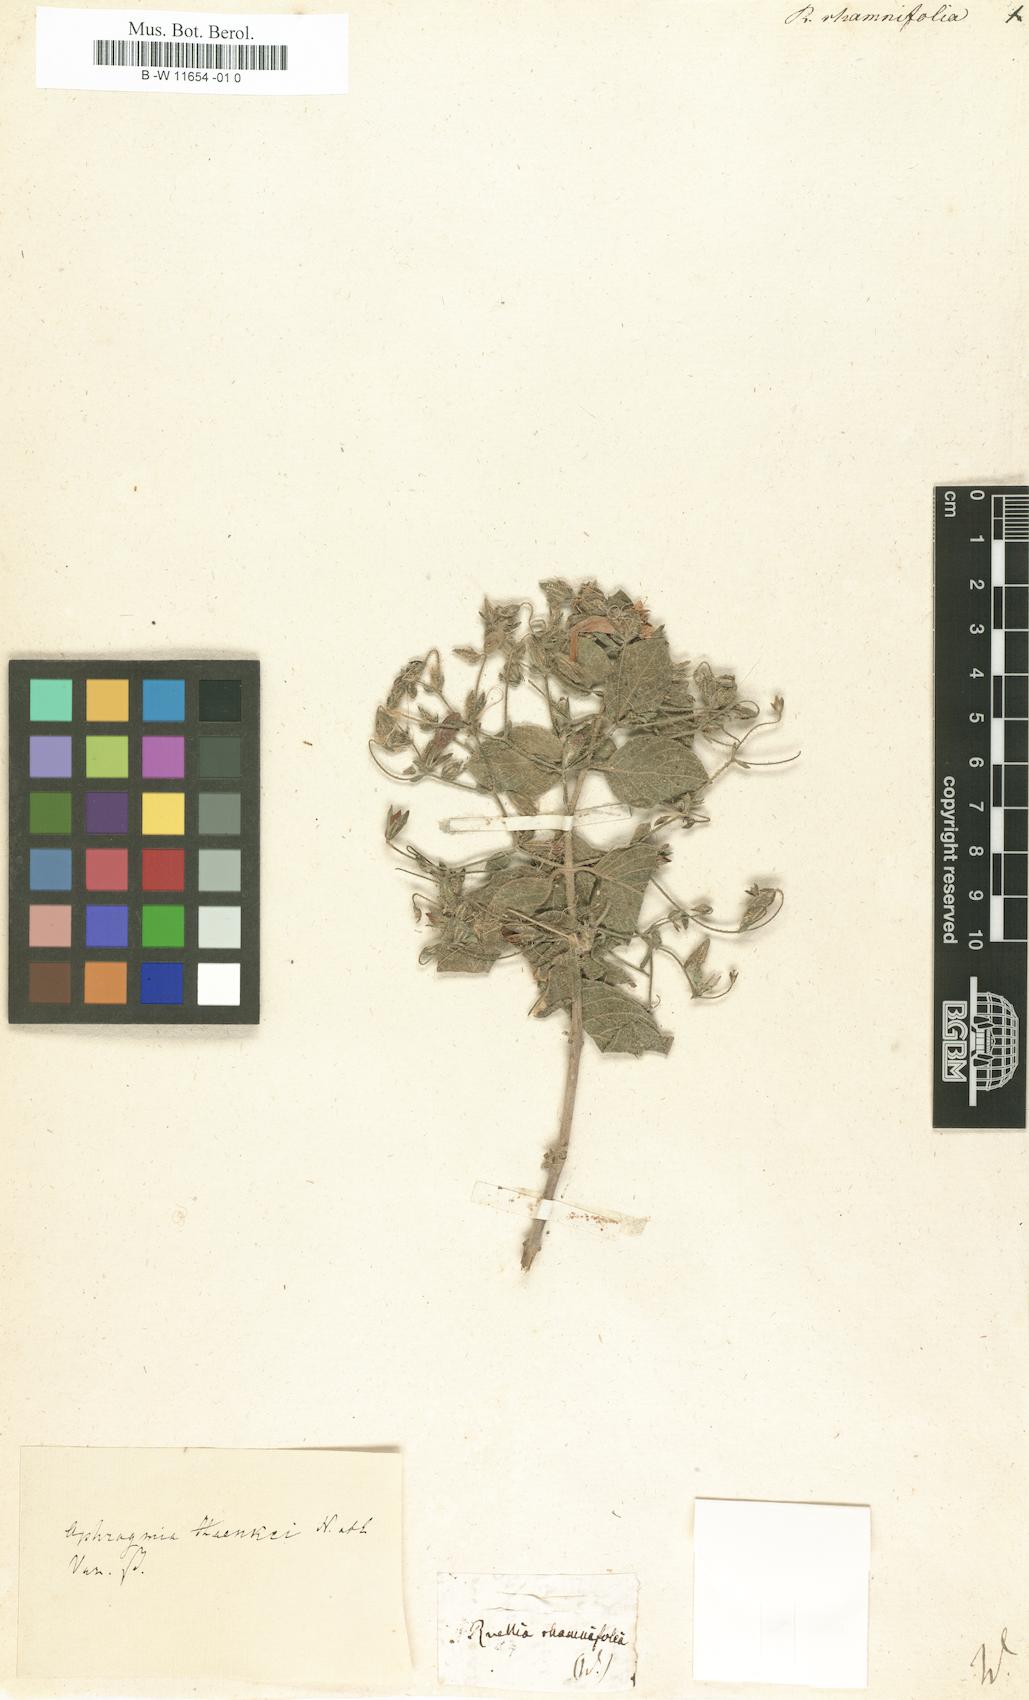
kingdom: Plantae
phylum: Tracheophyta
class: Magnoliopsida
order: Lamiales
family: Acanthaceae
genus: Ruellia
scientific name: Ruellia inundata
